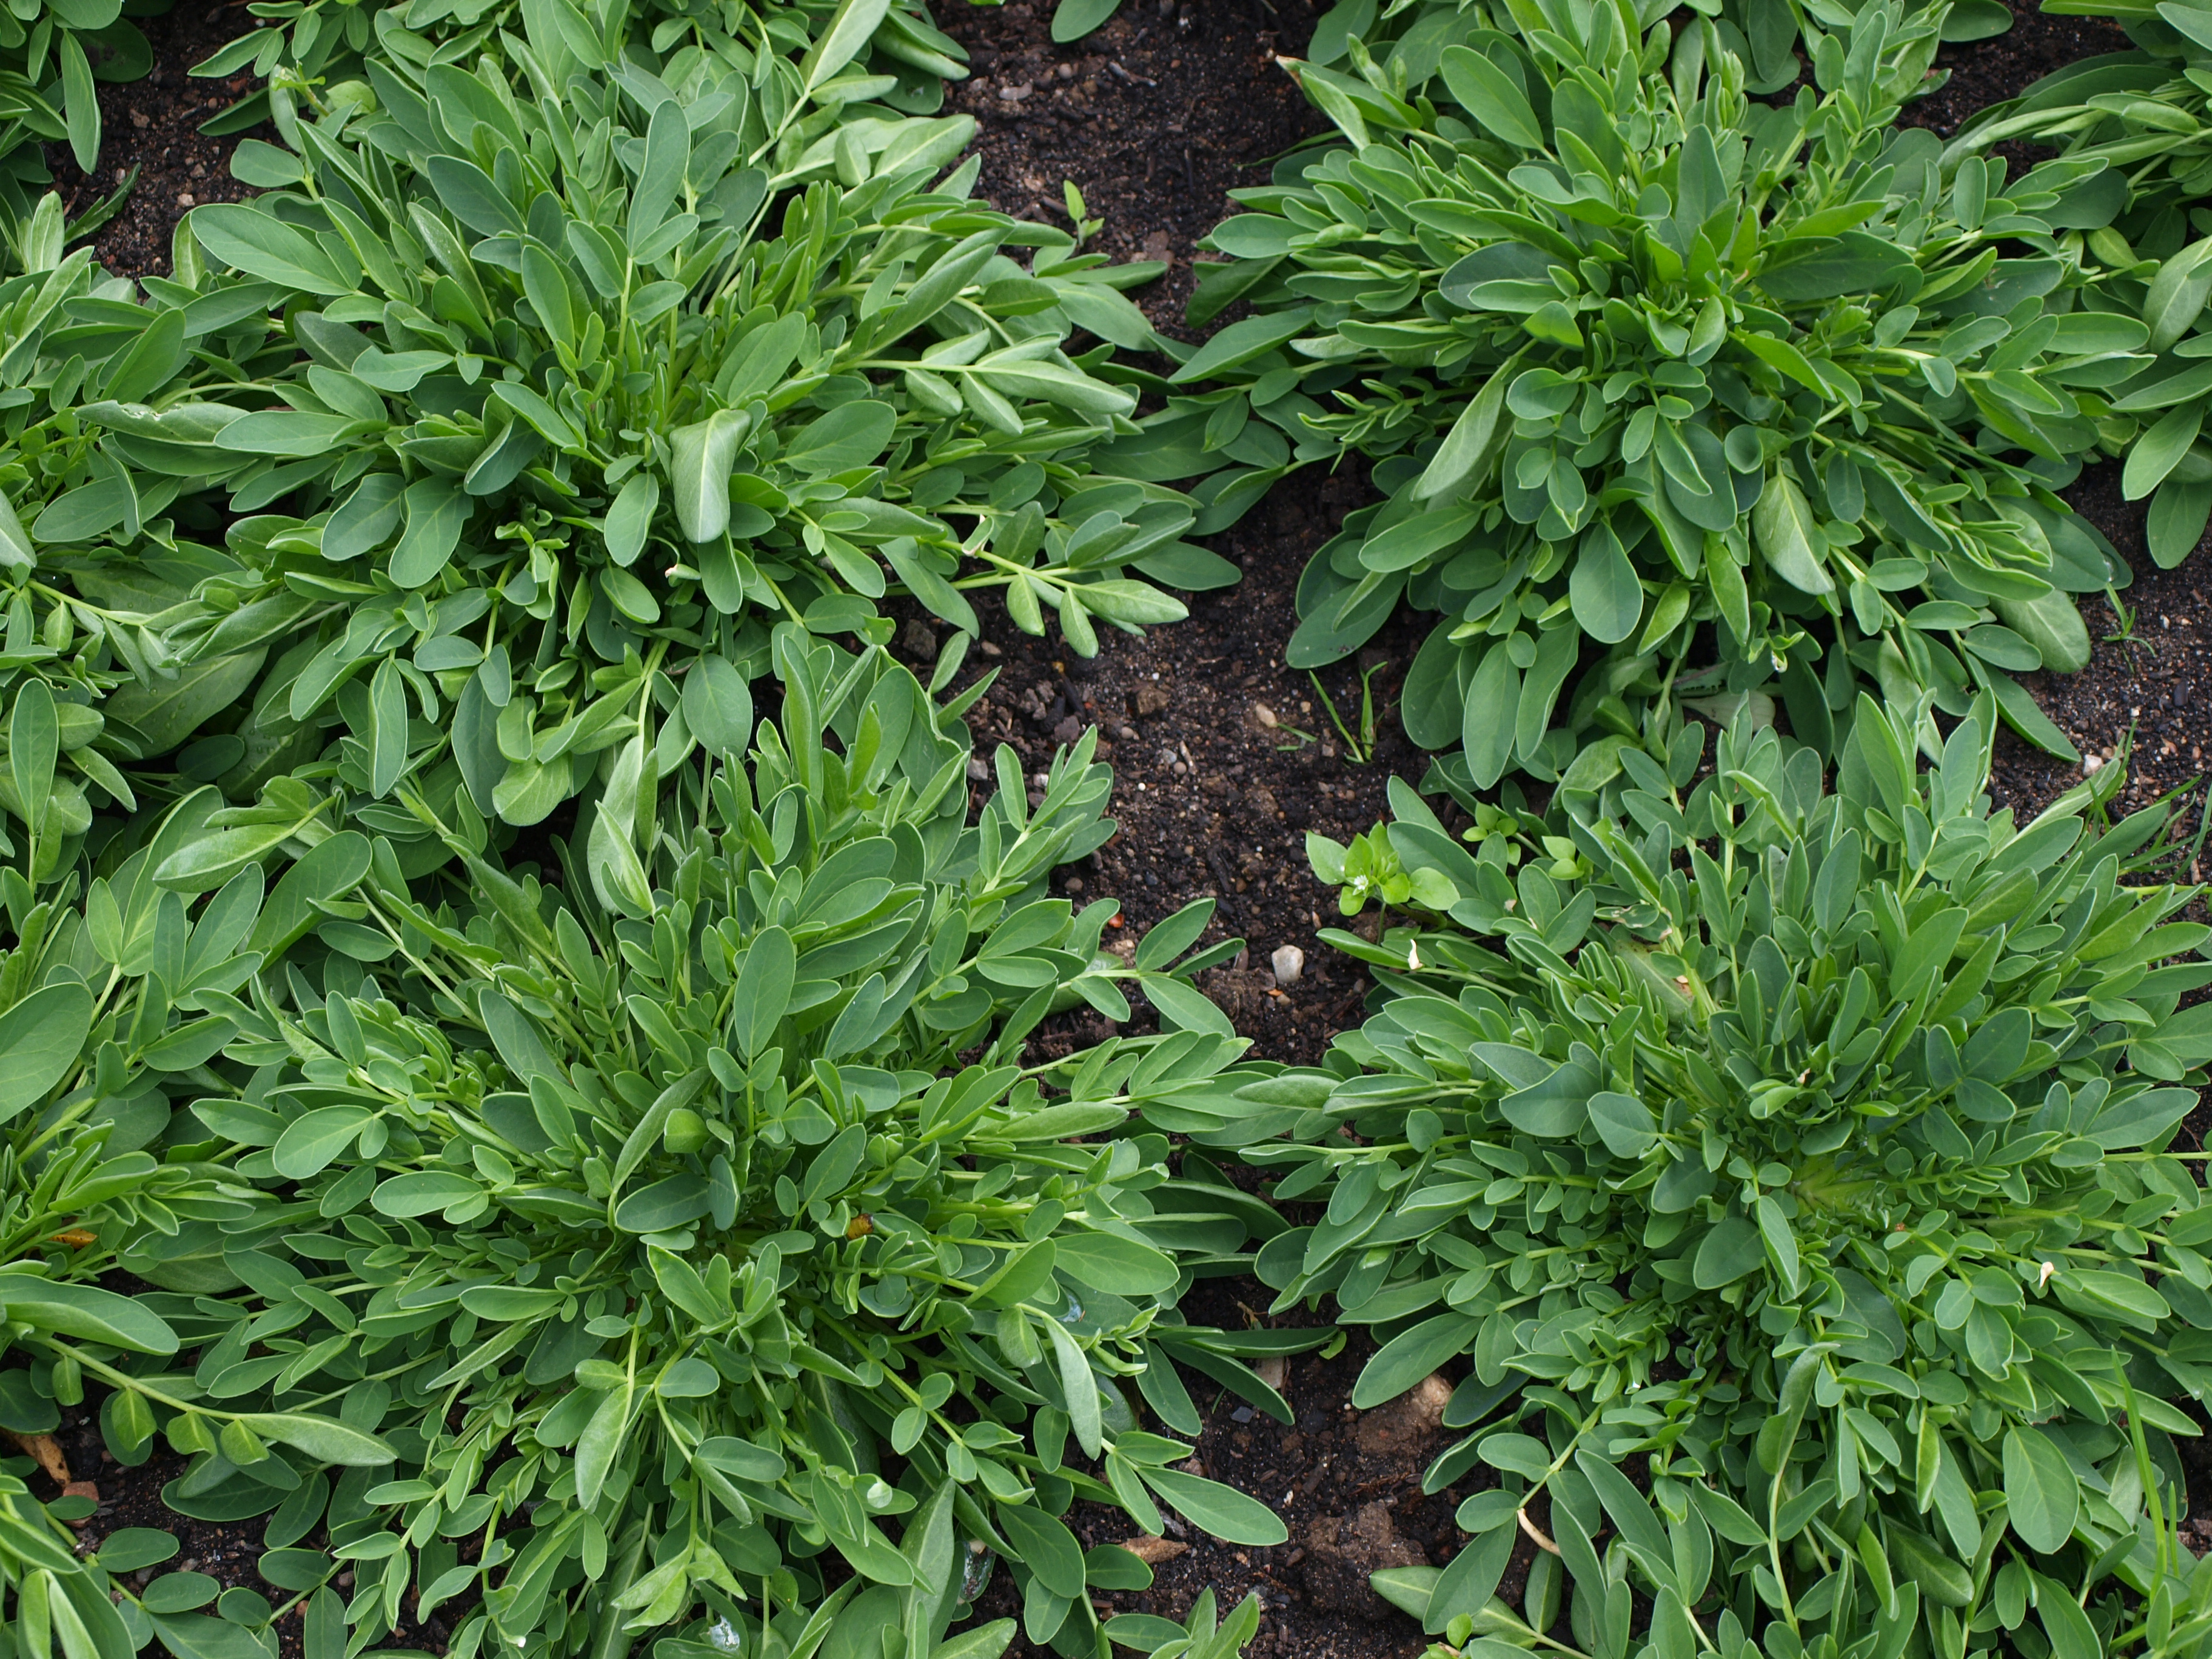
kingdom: Plantae
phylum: Tracheophyta
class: Magnoliopsida
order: Fabales
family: Fabaceae
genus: Anthyllis
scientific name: Anthyllis vulneraria
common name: Kidney vetch
